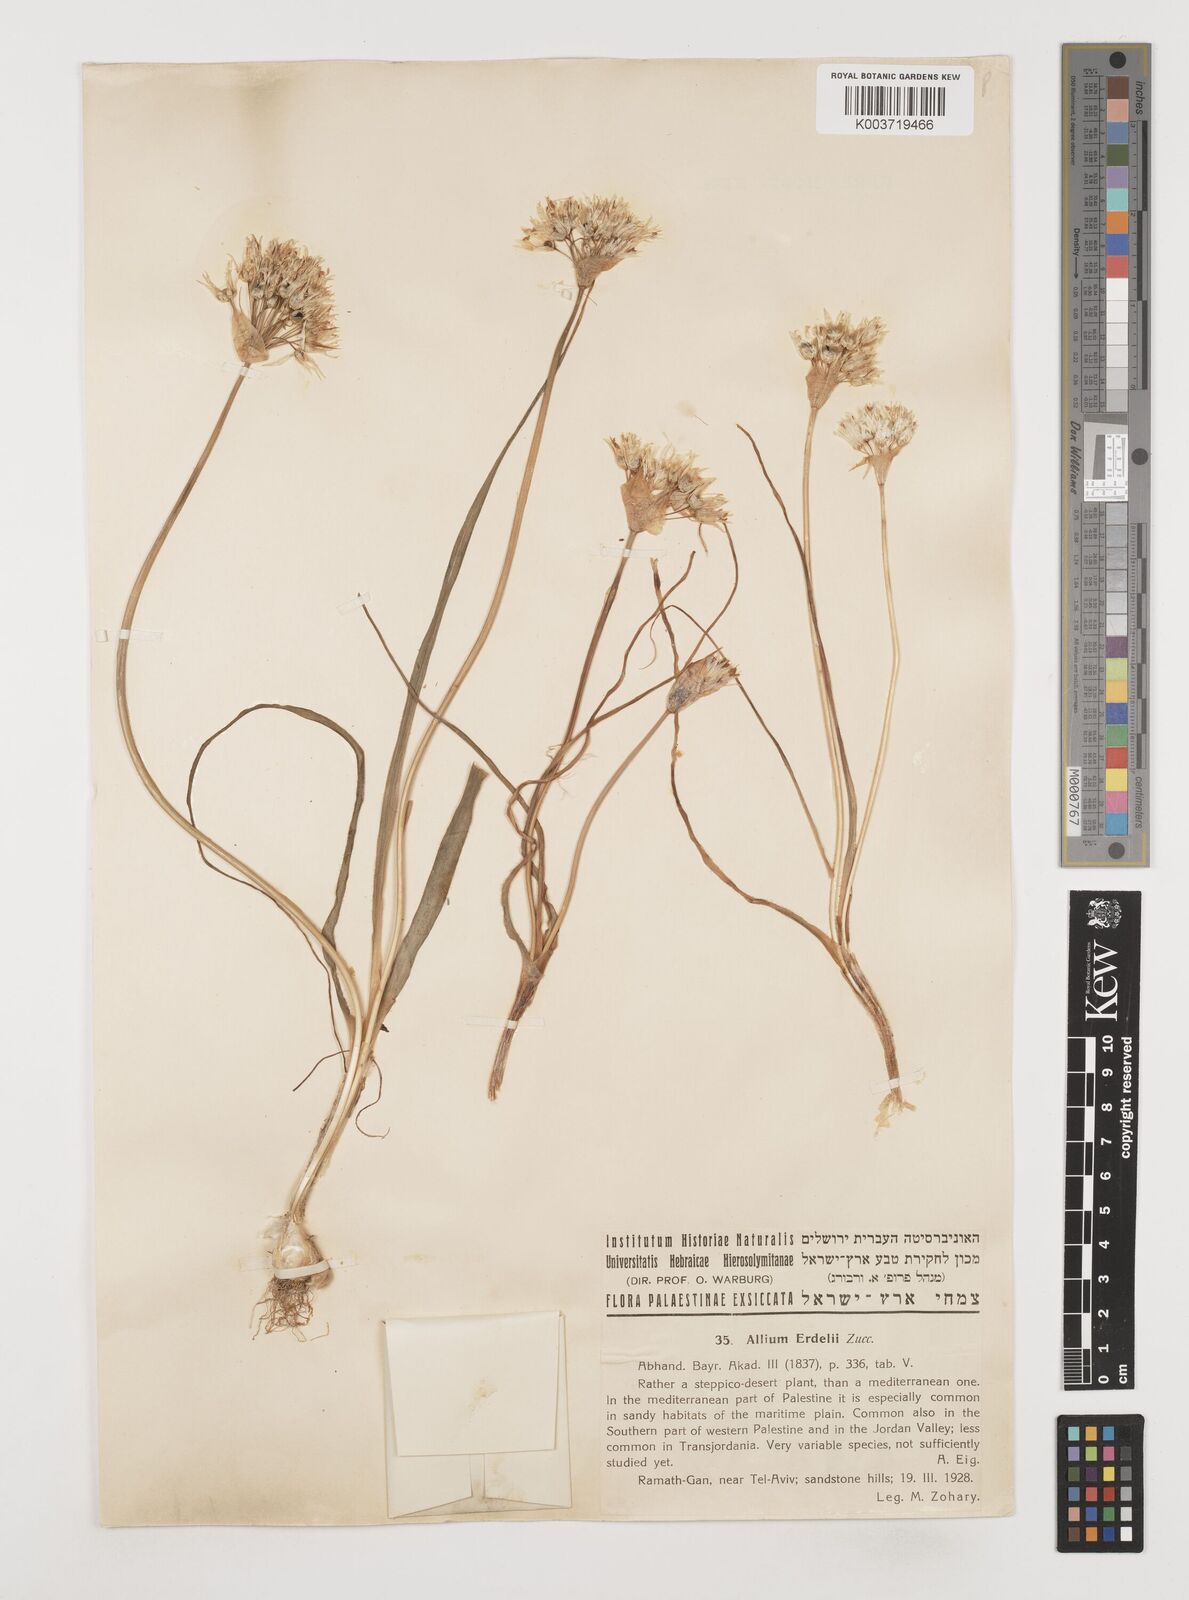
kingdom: Plantae
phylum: Tracheophyta
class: Liliopsida
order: Asparagales
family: Amaryllidaceae
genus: Allium
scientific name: Allium erdelii
